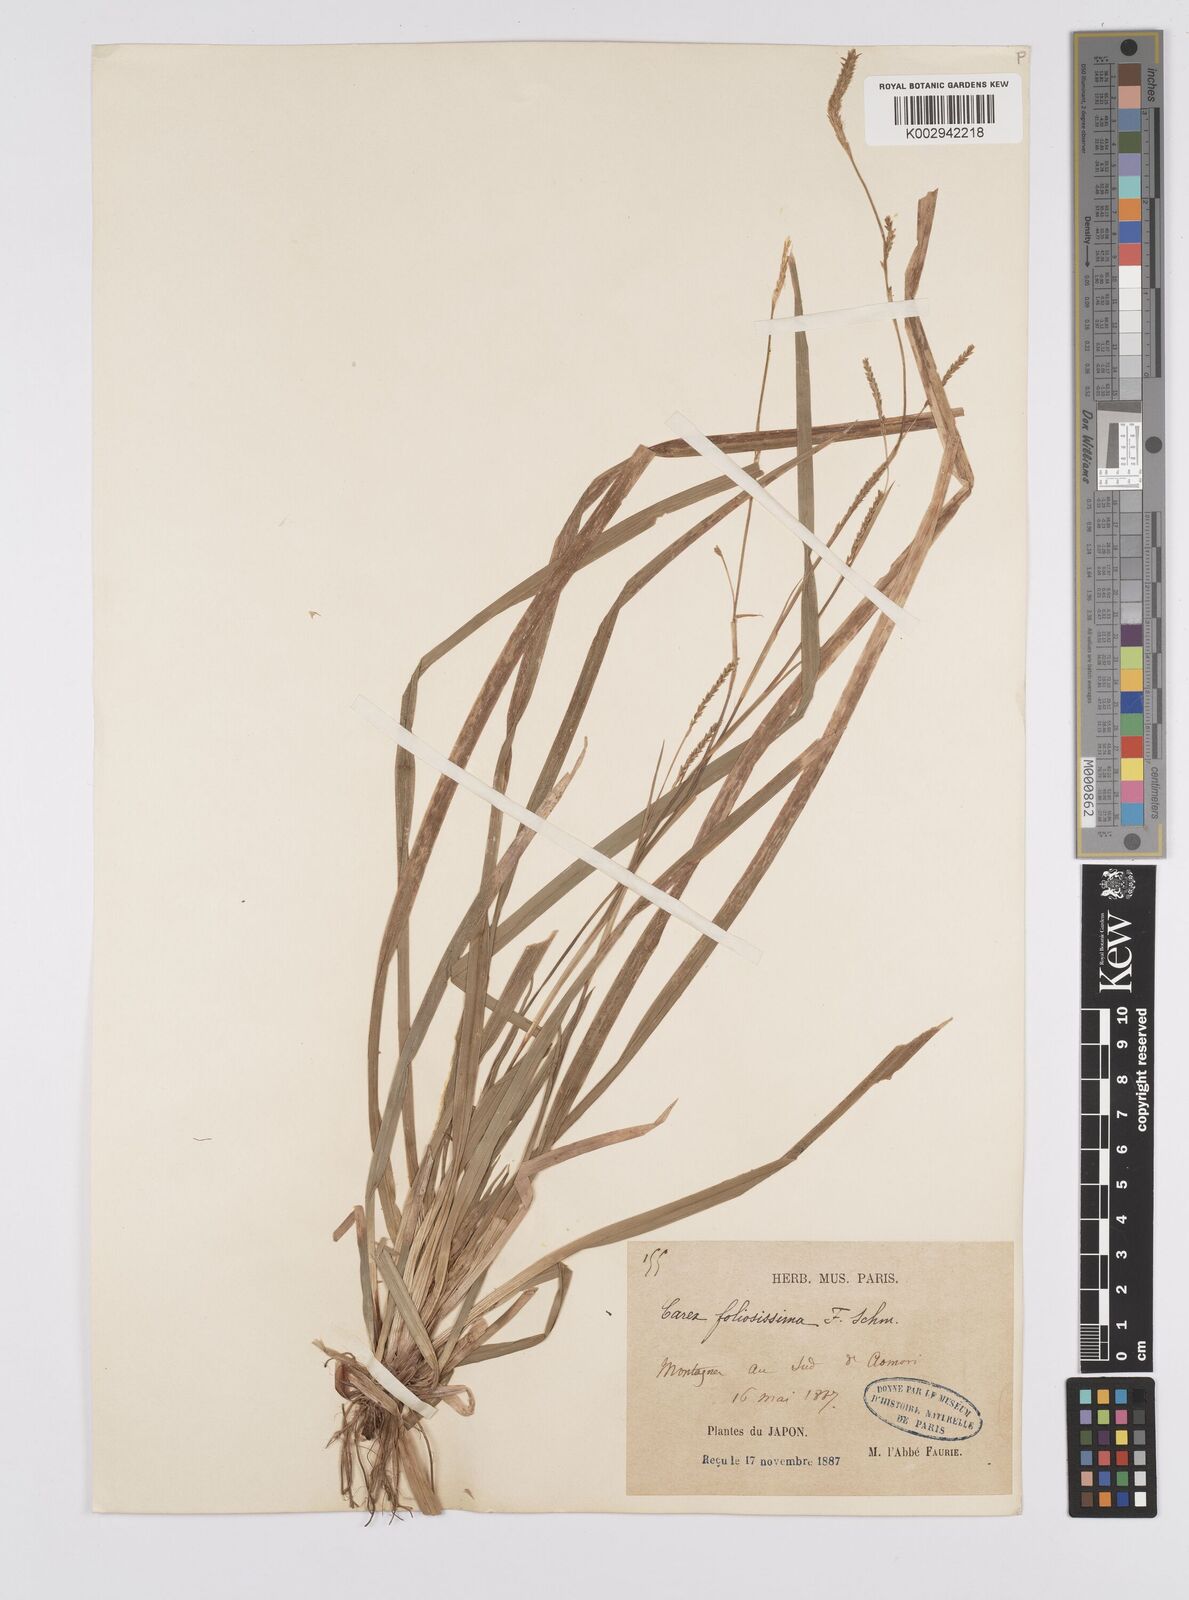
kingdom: Plantae
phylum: Tracheophyta
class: Liliopsida
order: Poales
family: Cyperaceae
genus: Carex
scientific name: Carex morrowii
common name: Japanese sedge
